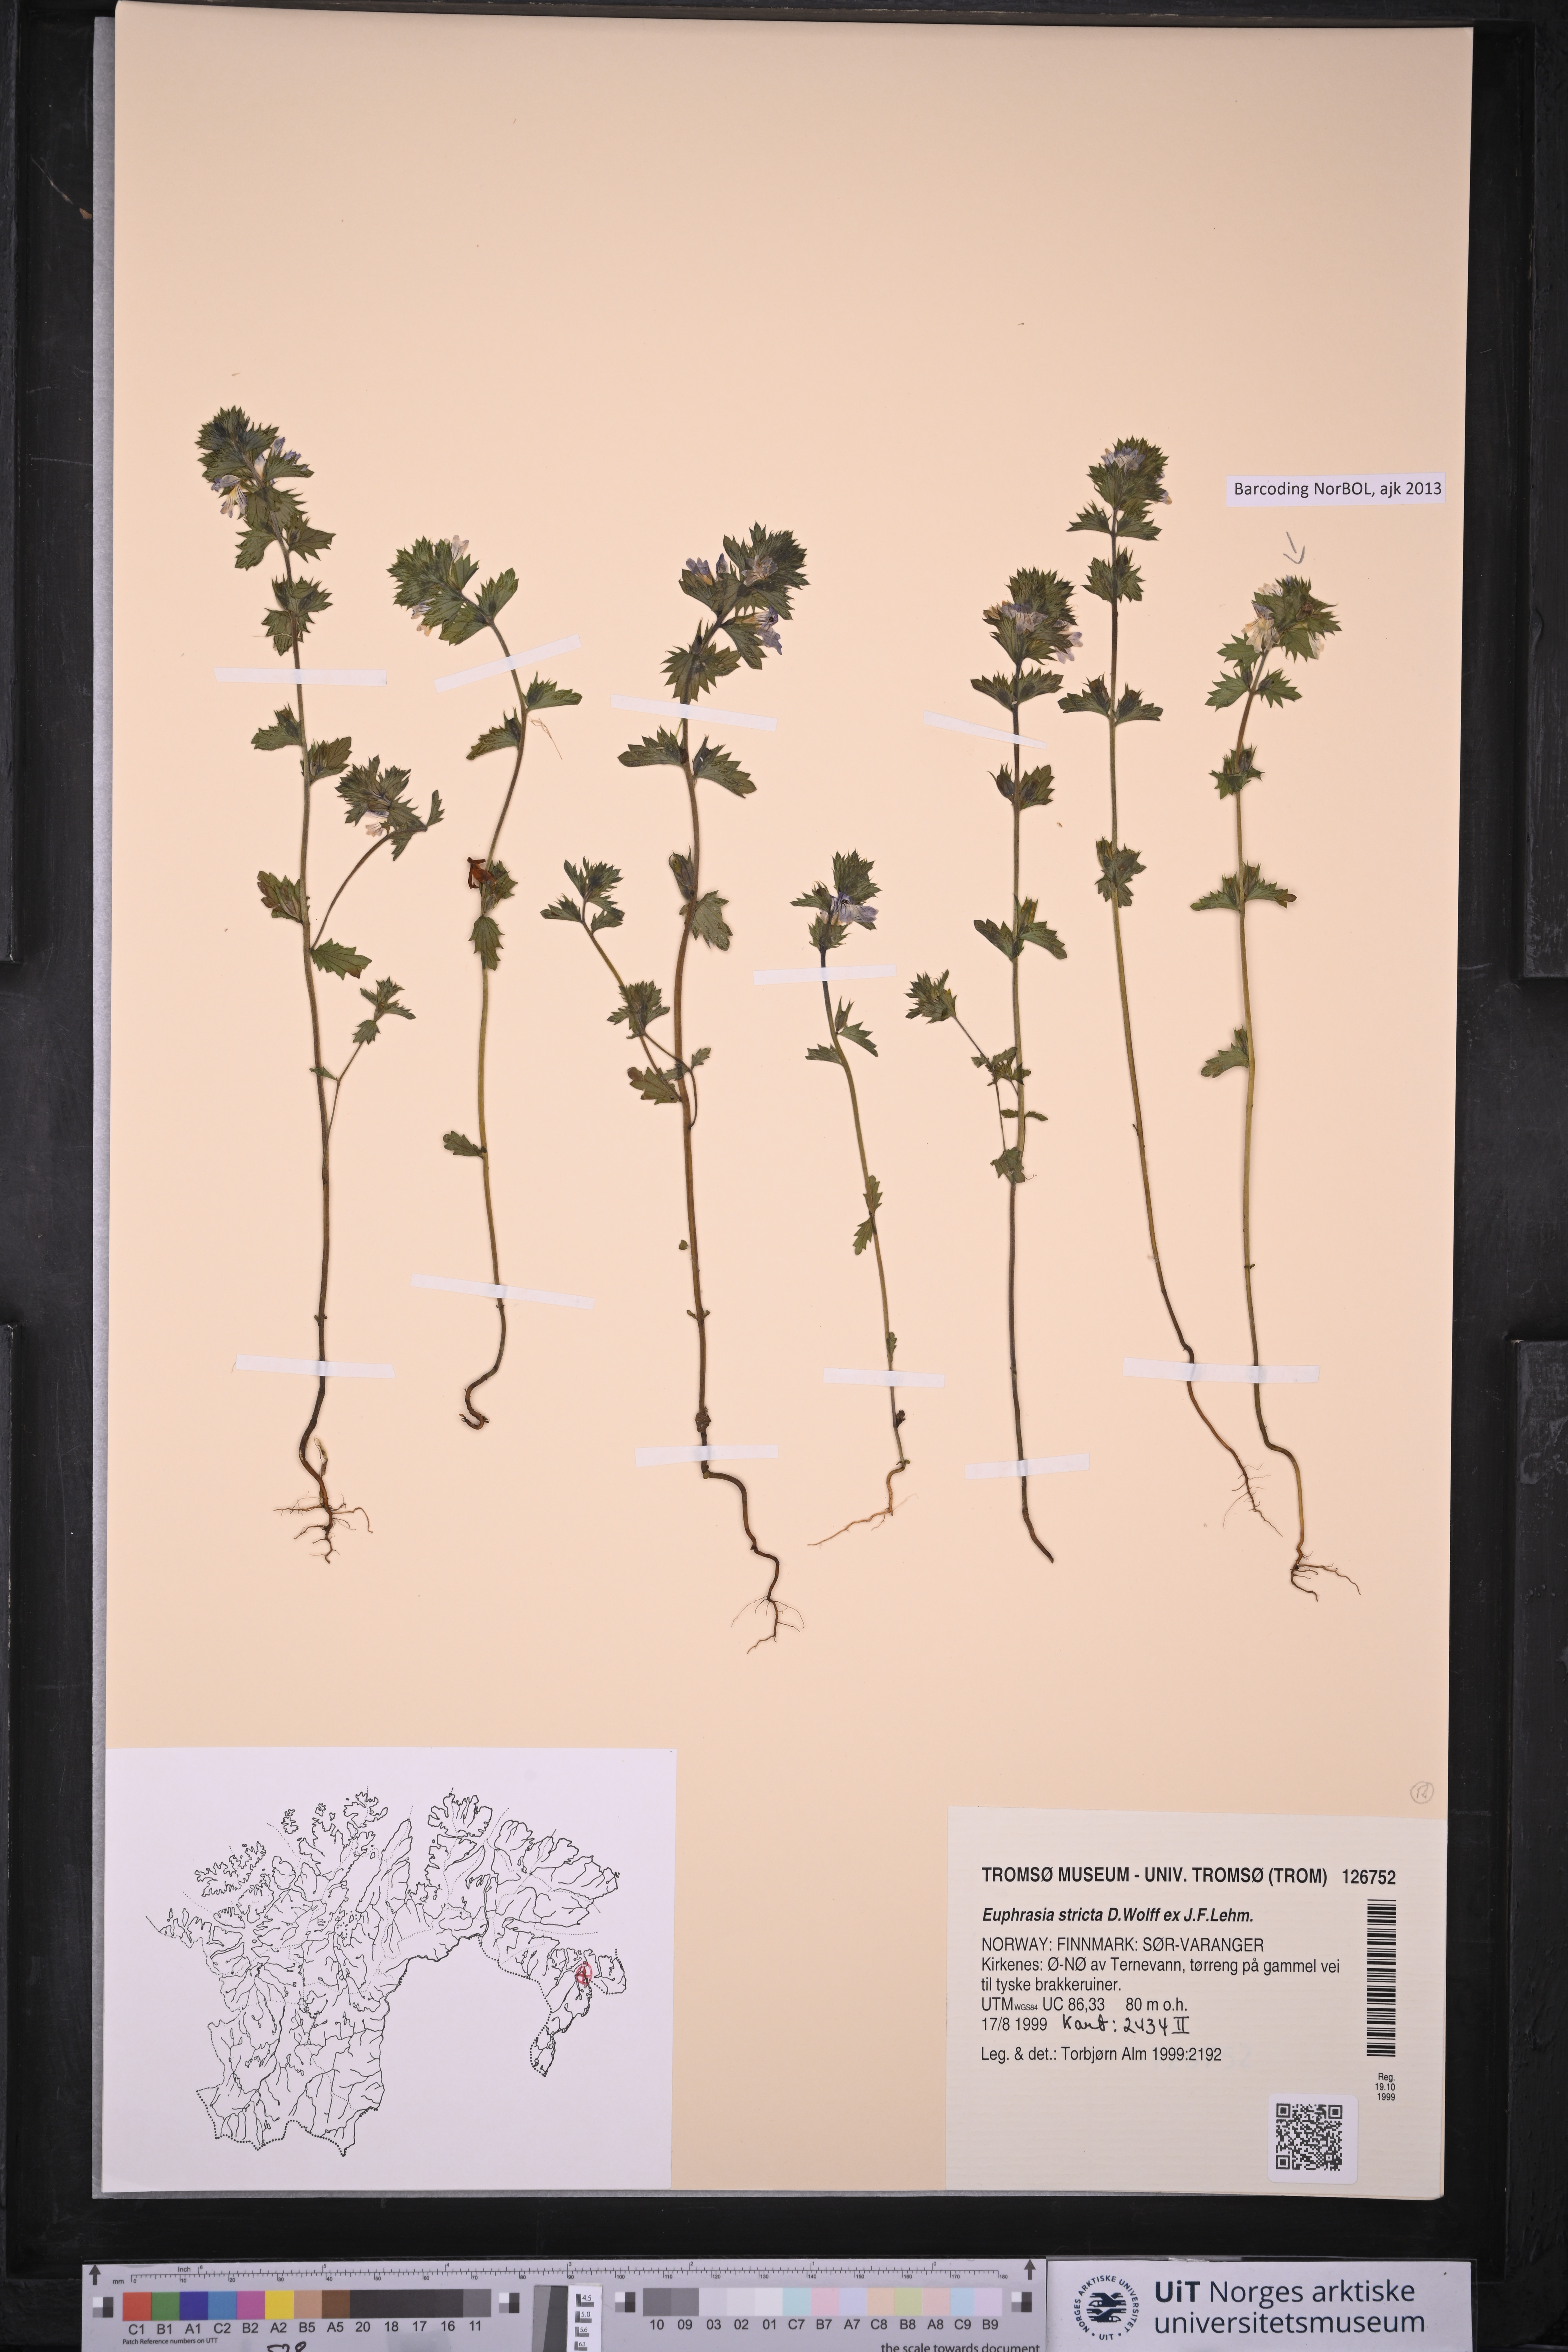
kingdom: Plantae
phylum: Tracheophyta
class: Magnoliopsida
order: Lamiales
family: Orobanchaceae
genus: Euphrasia
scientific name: Euphrasia stricta
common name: Drug eyebright
